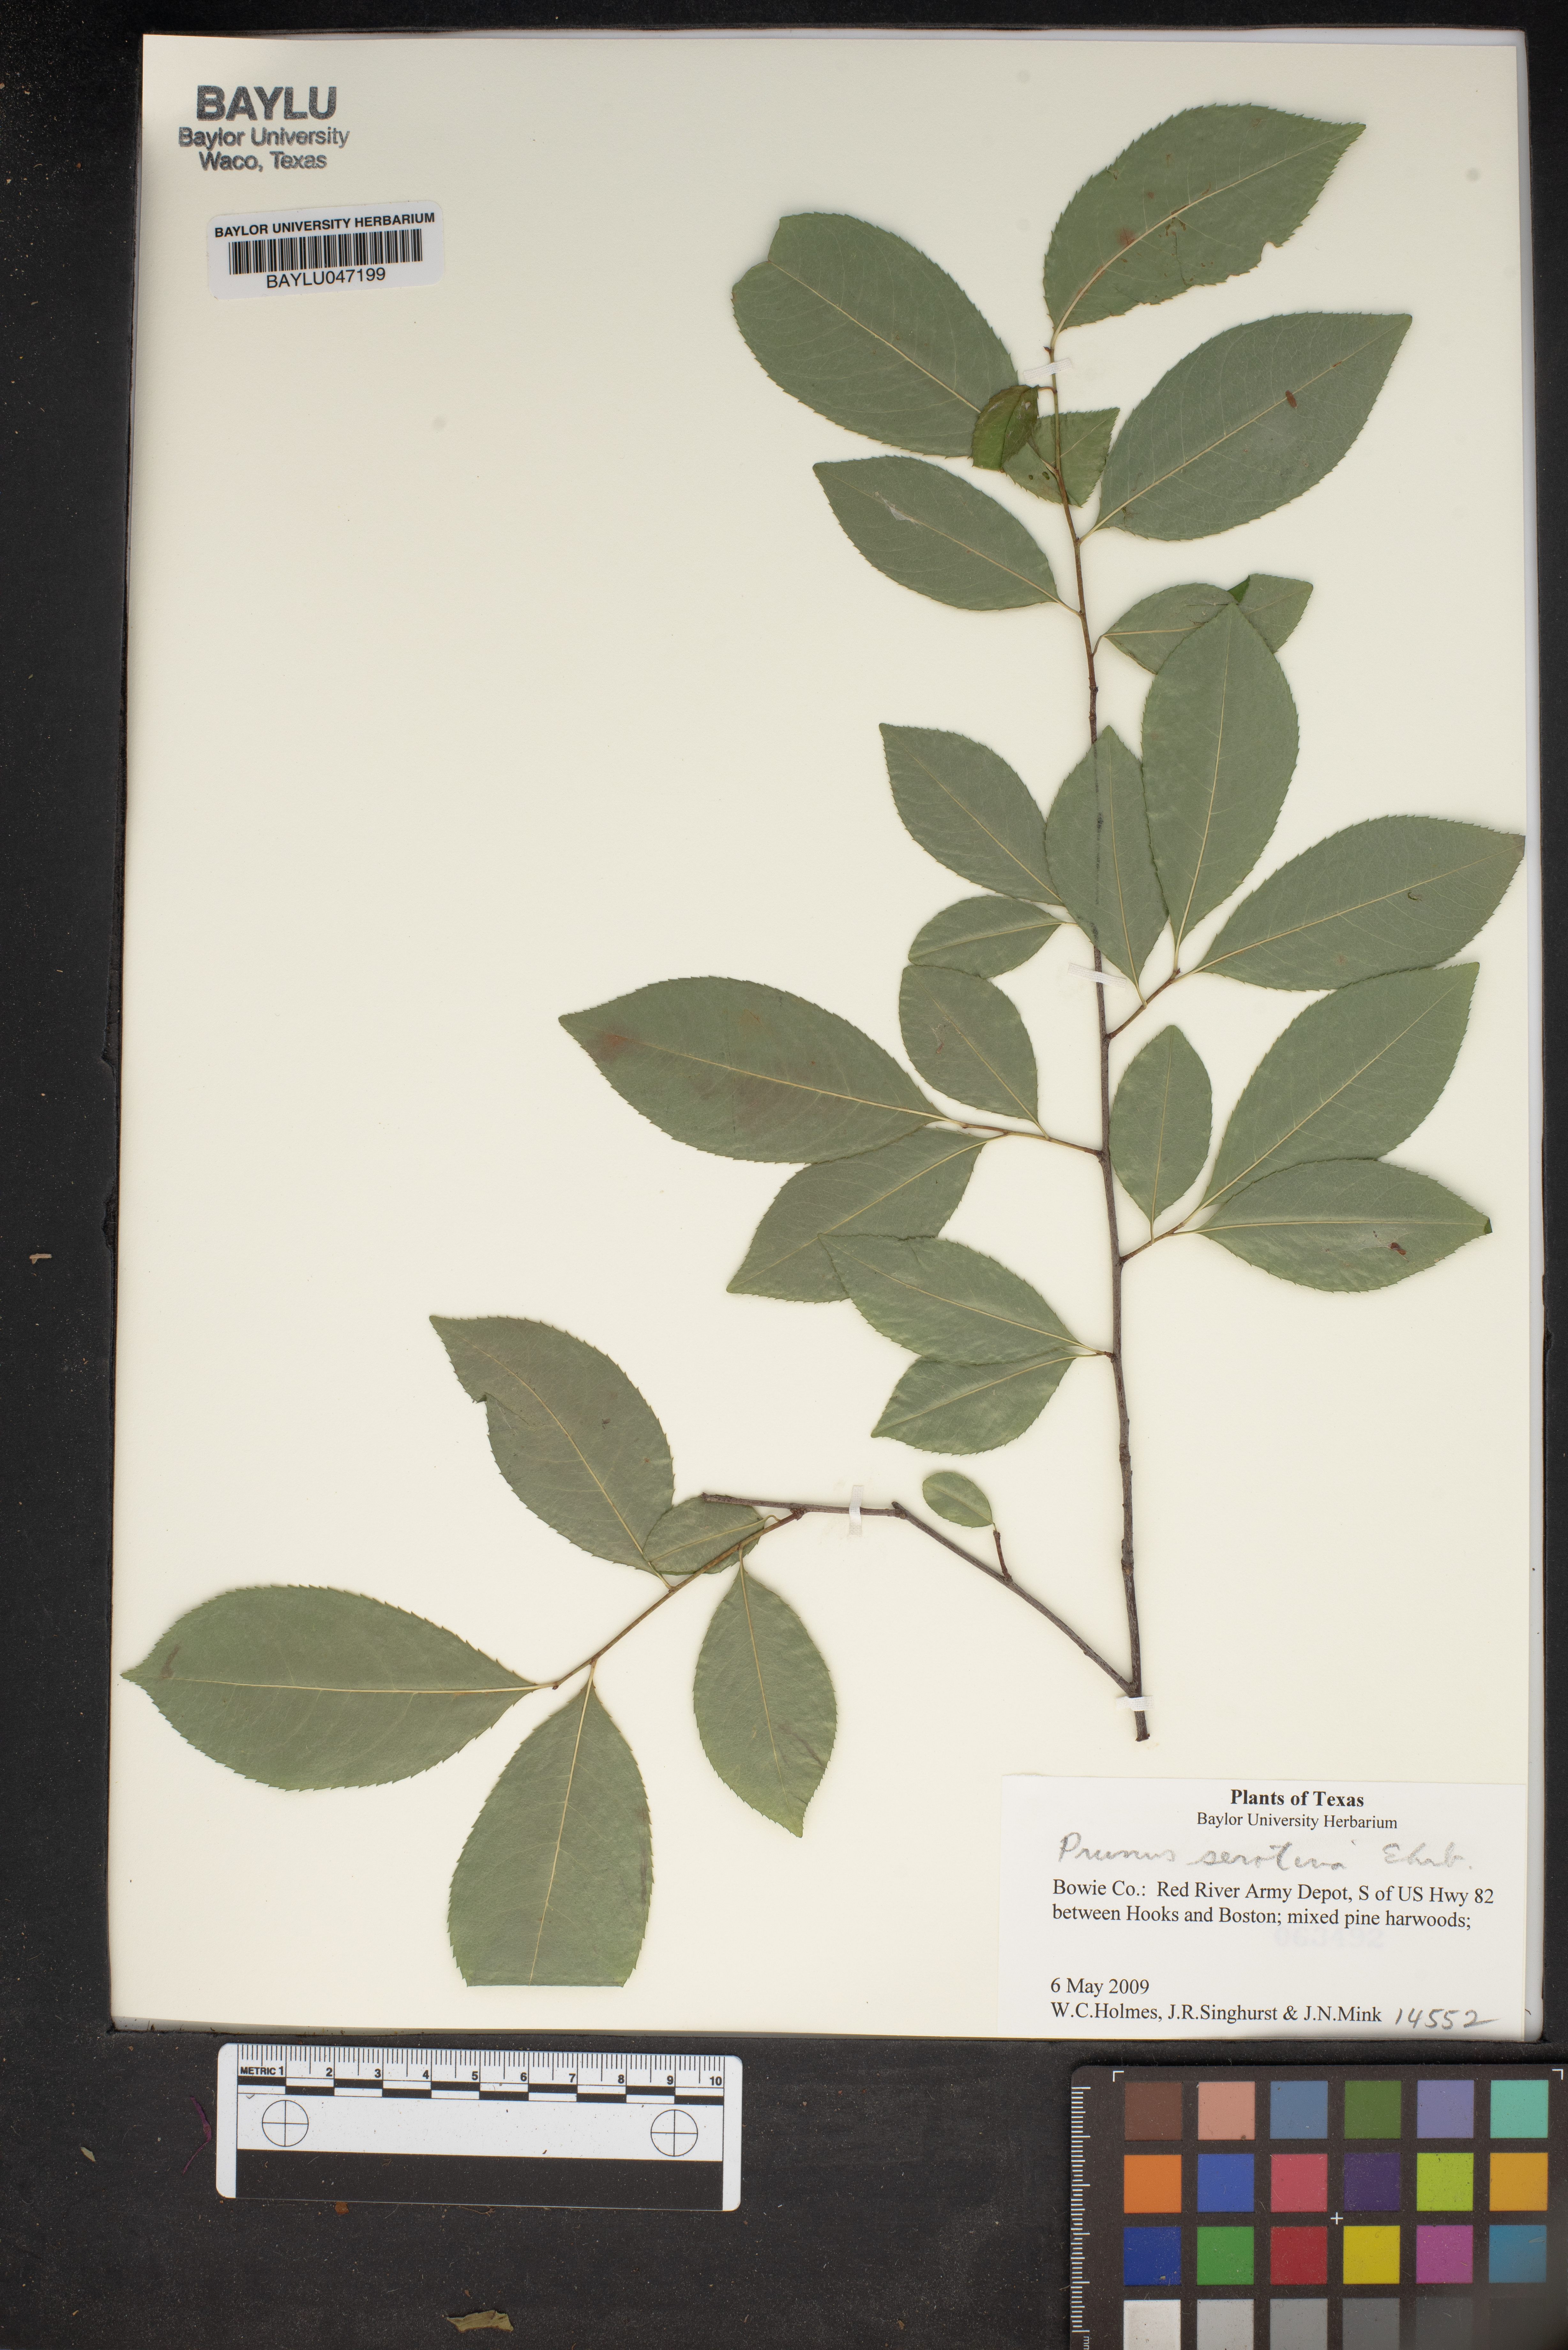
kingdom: Plantae
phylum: Tracheophyta
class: Magnoliopsida
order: Rosales
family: Rosaceae
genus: Prunus
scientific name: Prunus serotina
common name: Black cherry
